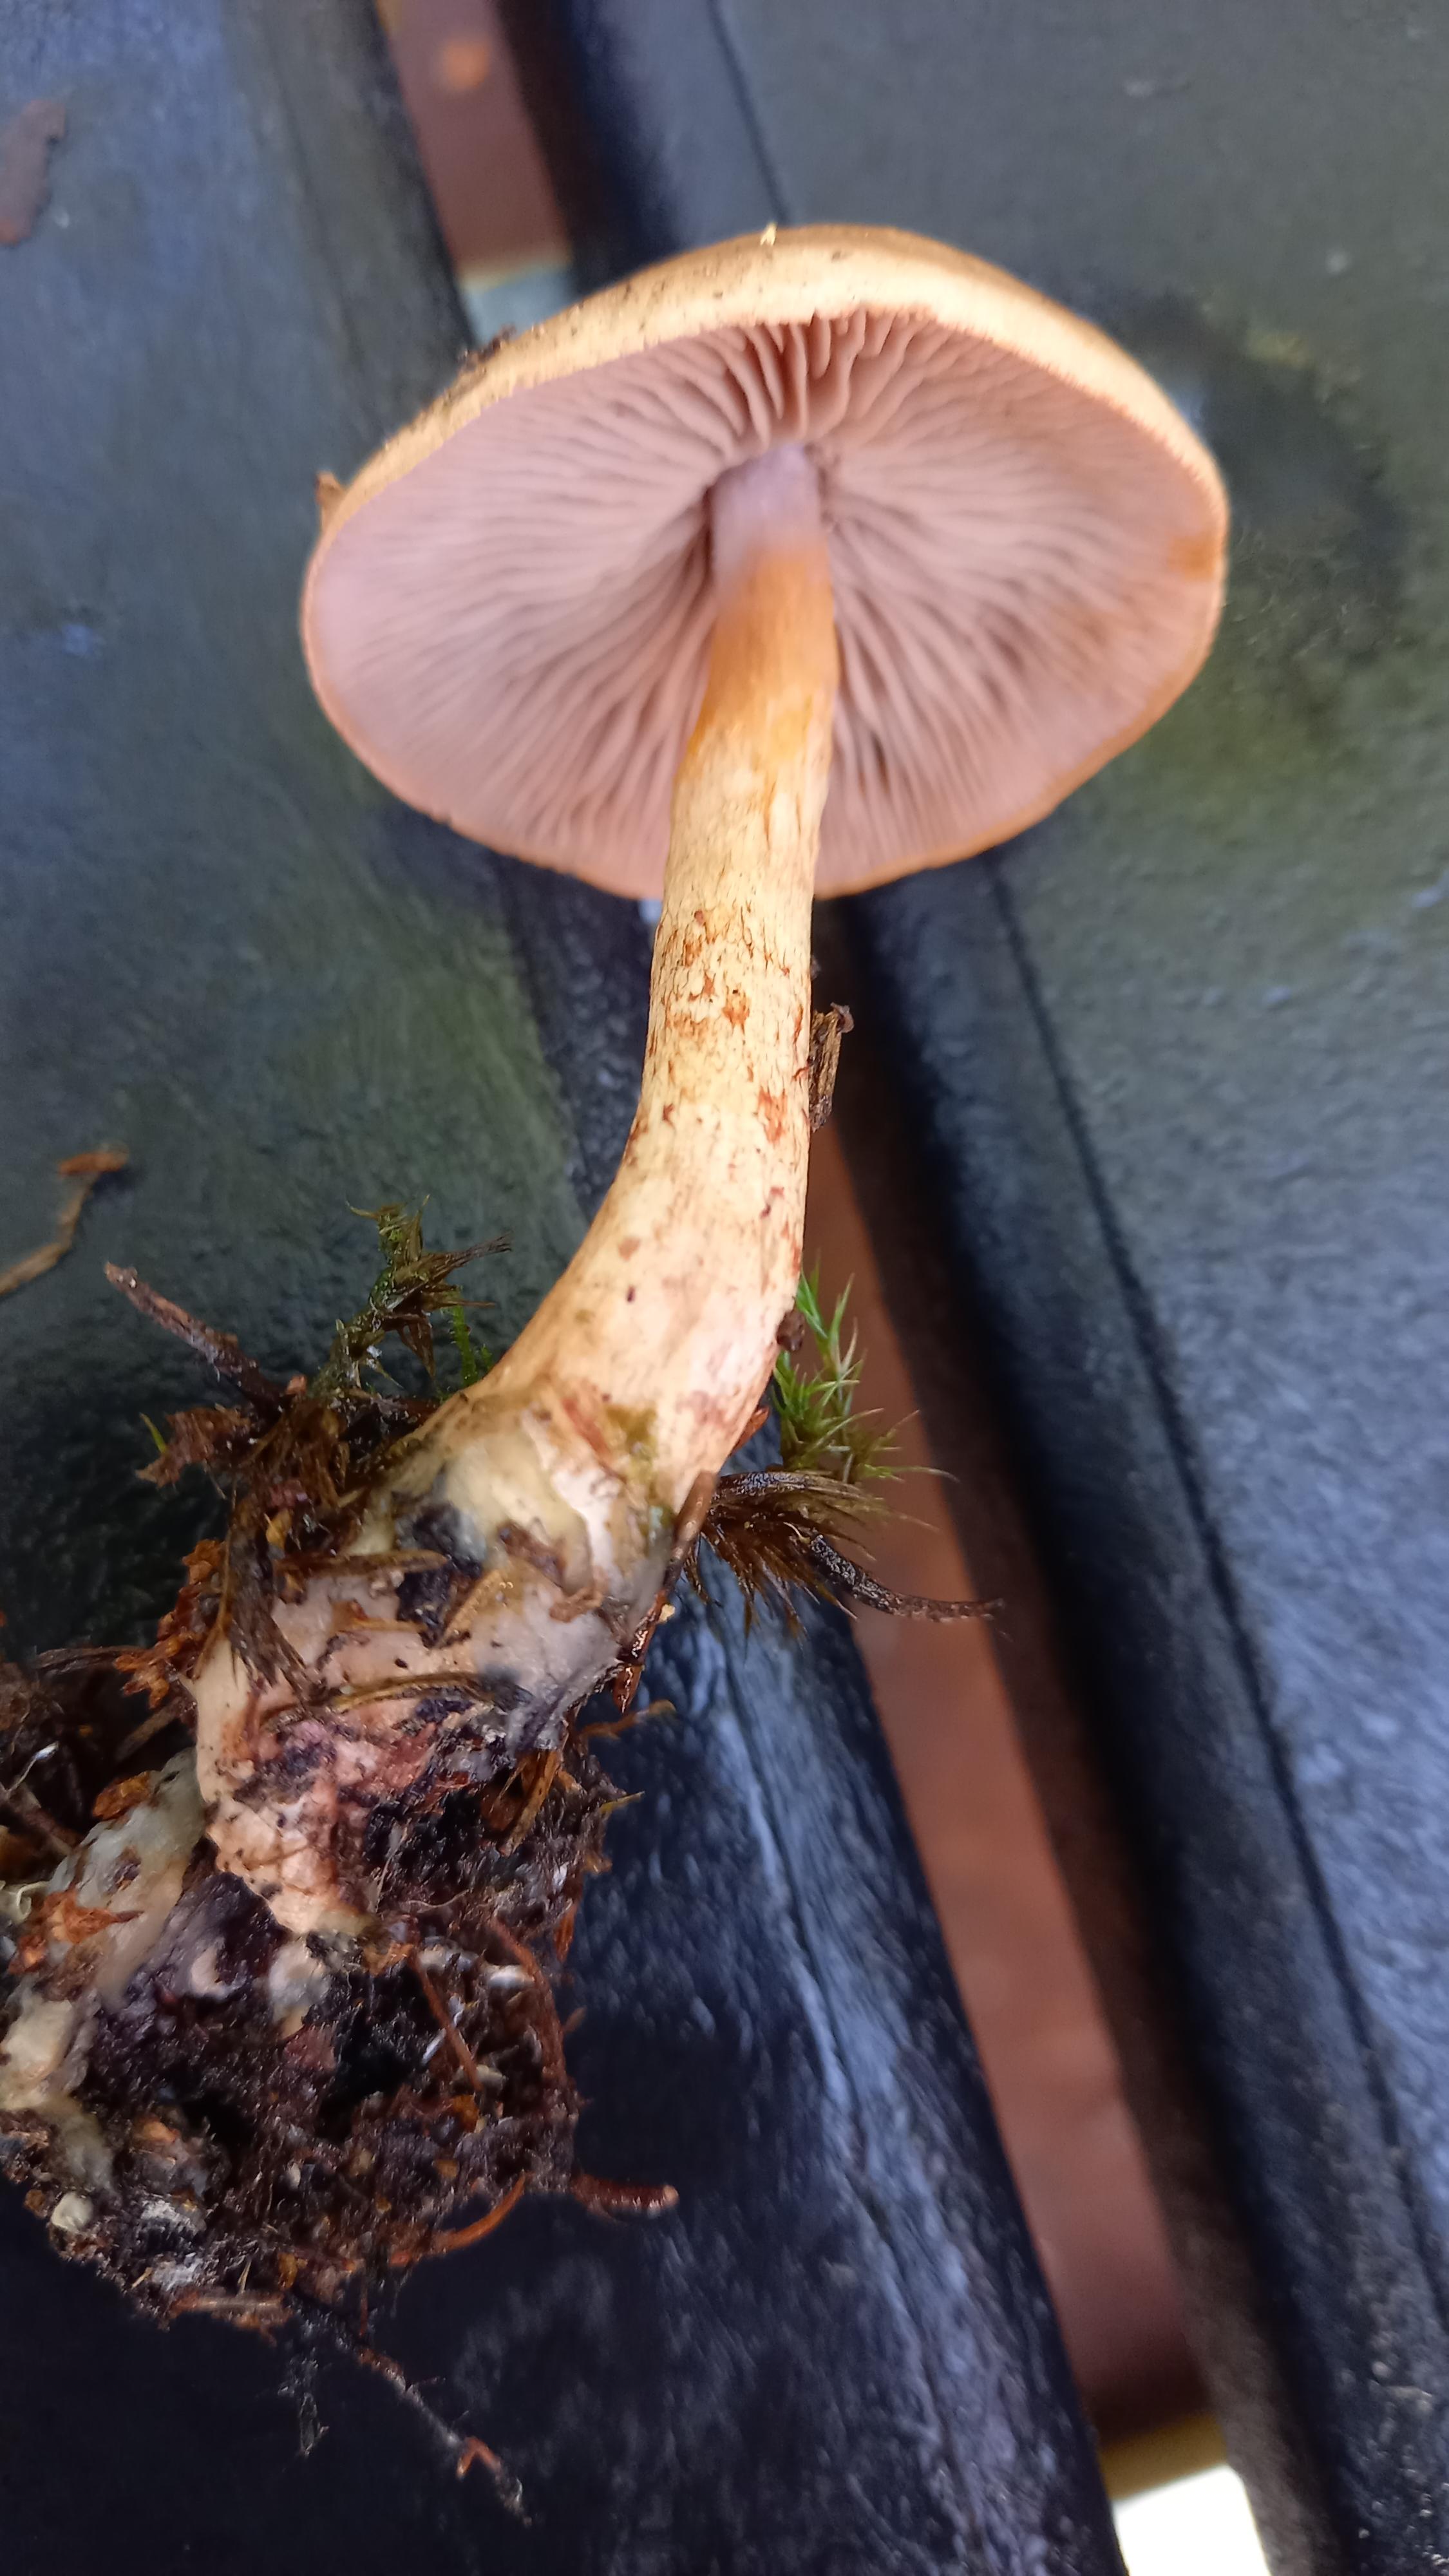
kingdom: Fungi
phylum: Basidiomycota
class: Agaricomycetes
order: Agaricales
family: Cortinariaceae
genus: Cortinarius
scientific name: Cortinarius spilomeus
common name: rødfnugget slørhat
